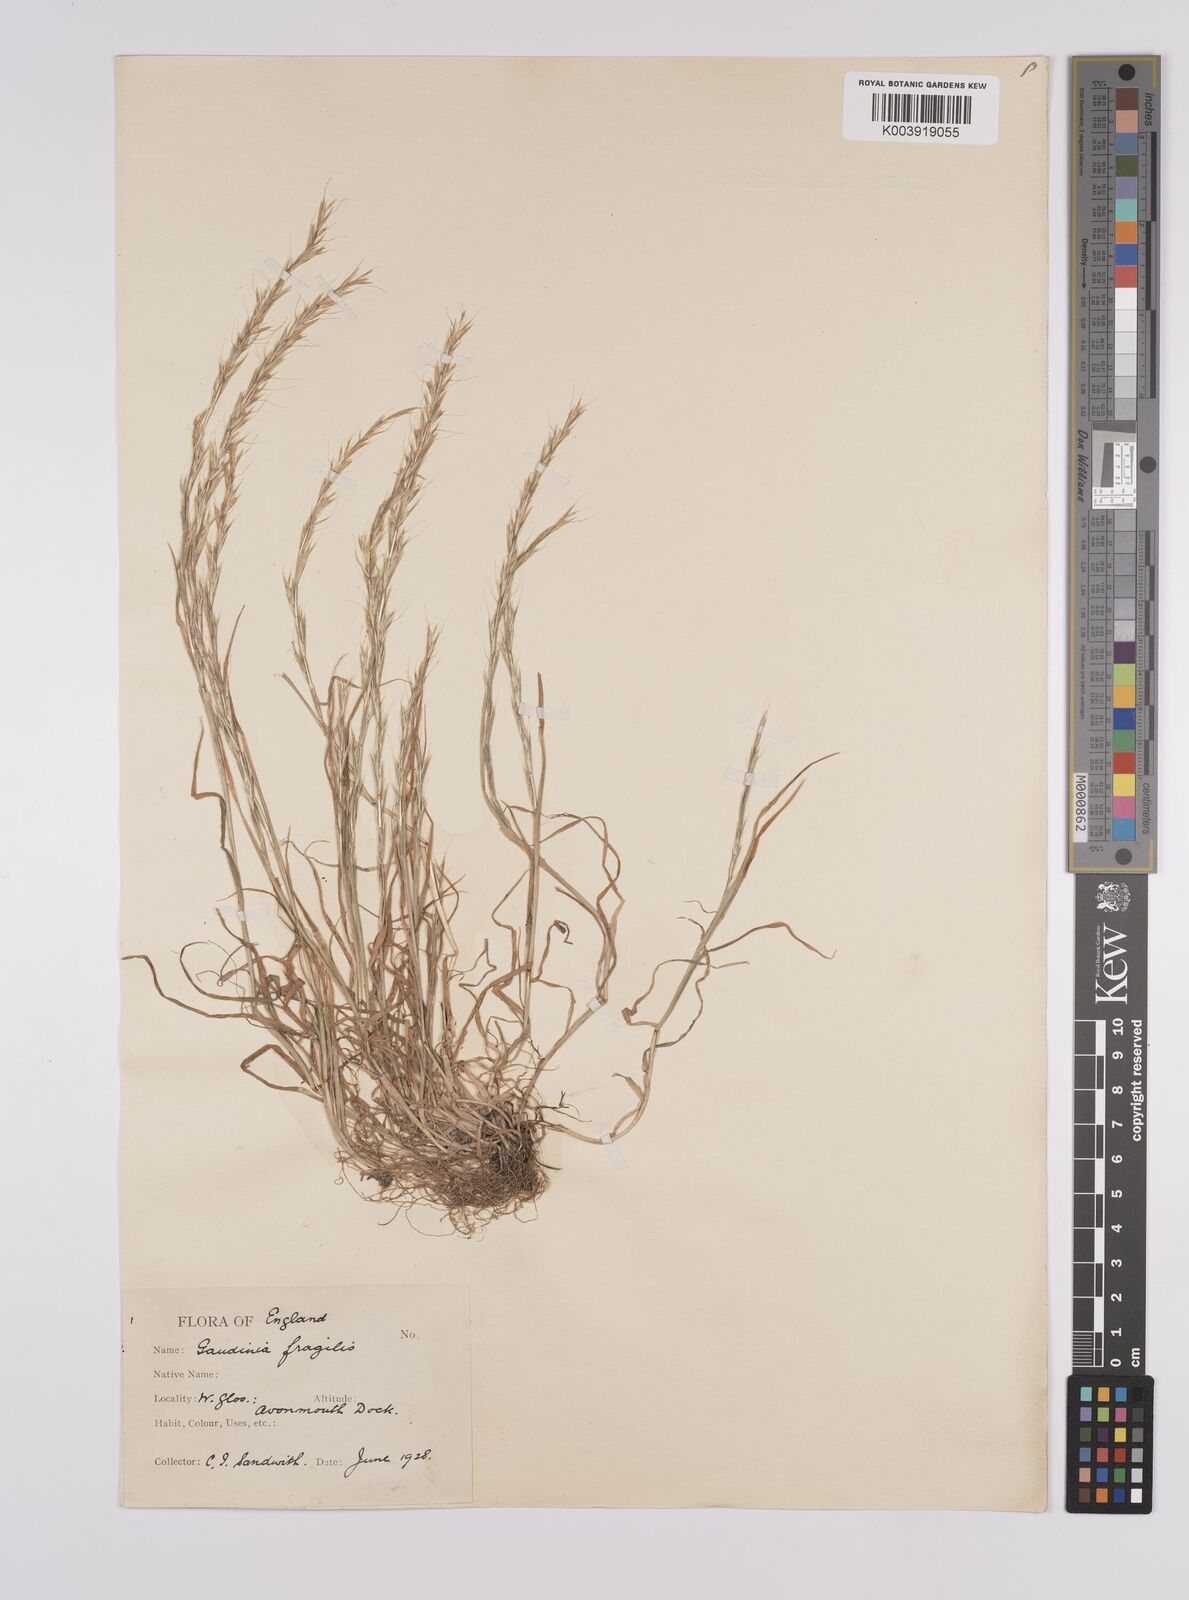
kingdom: Plantae
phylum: Tracheophyta
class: Liliopsida
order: Poales
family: Poaceae
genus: Gaudinia
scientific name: Gaudinia fragilis
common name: French oat-grass
